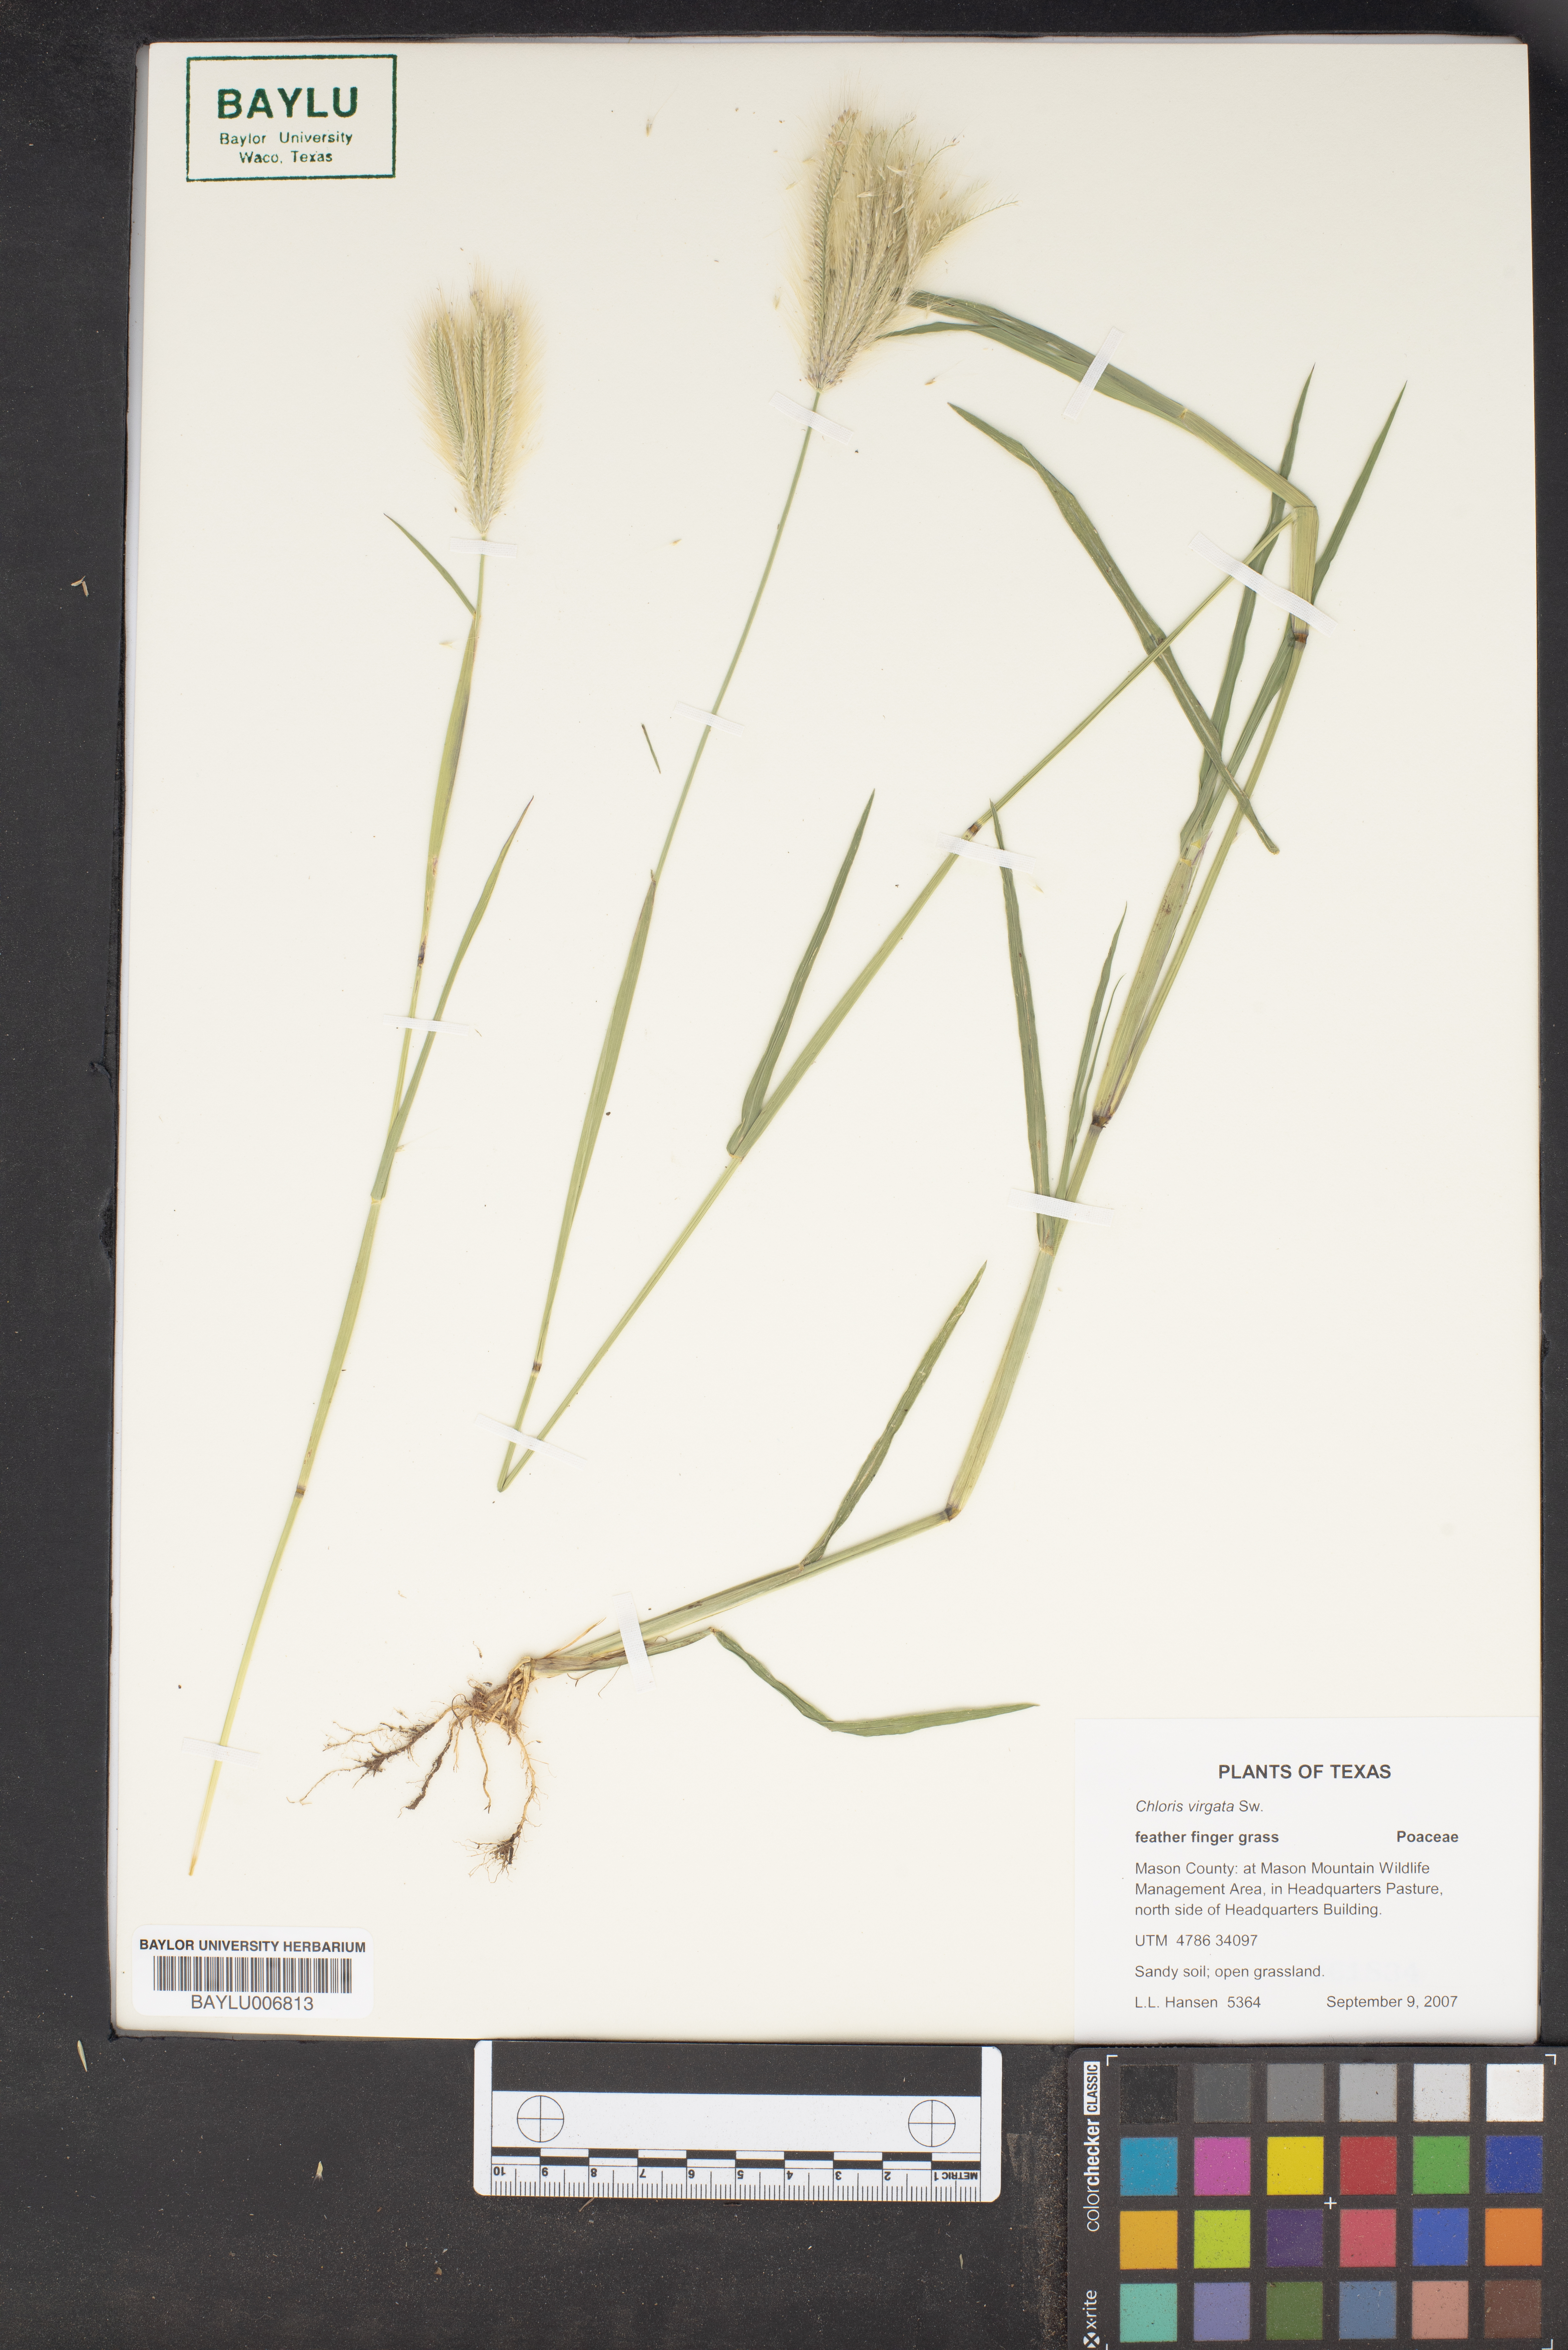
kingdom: Plantae
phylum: Tracheophyta
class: Liliopsida
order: Poales
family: Poaceae
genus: Chloris
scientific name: Chloris virgata
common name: Feathery rhodes-grass
